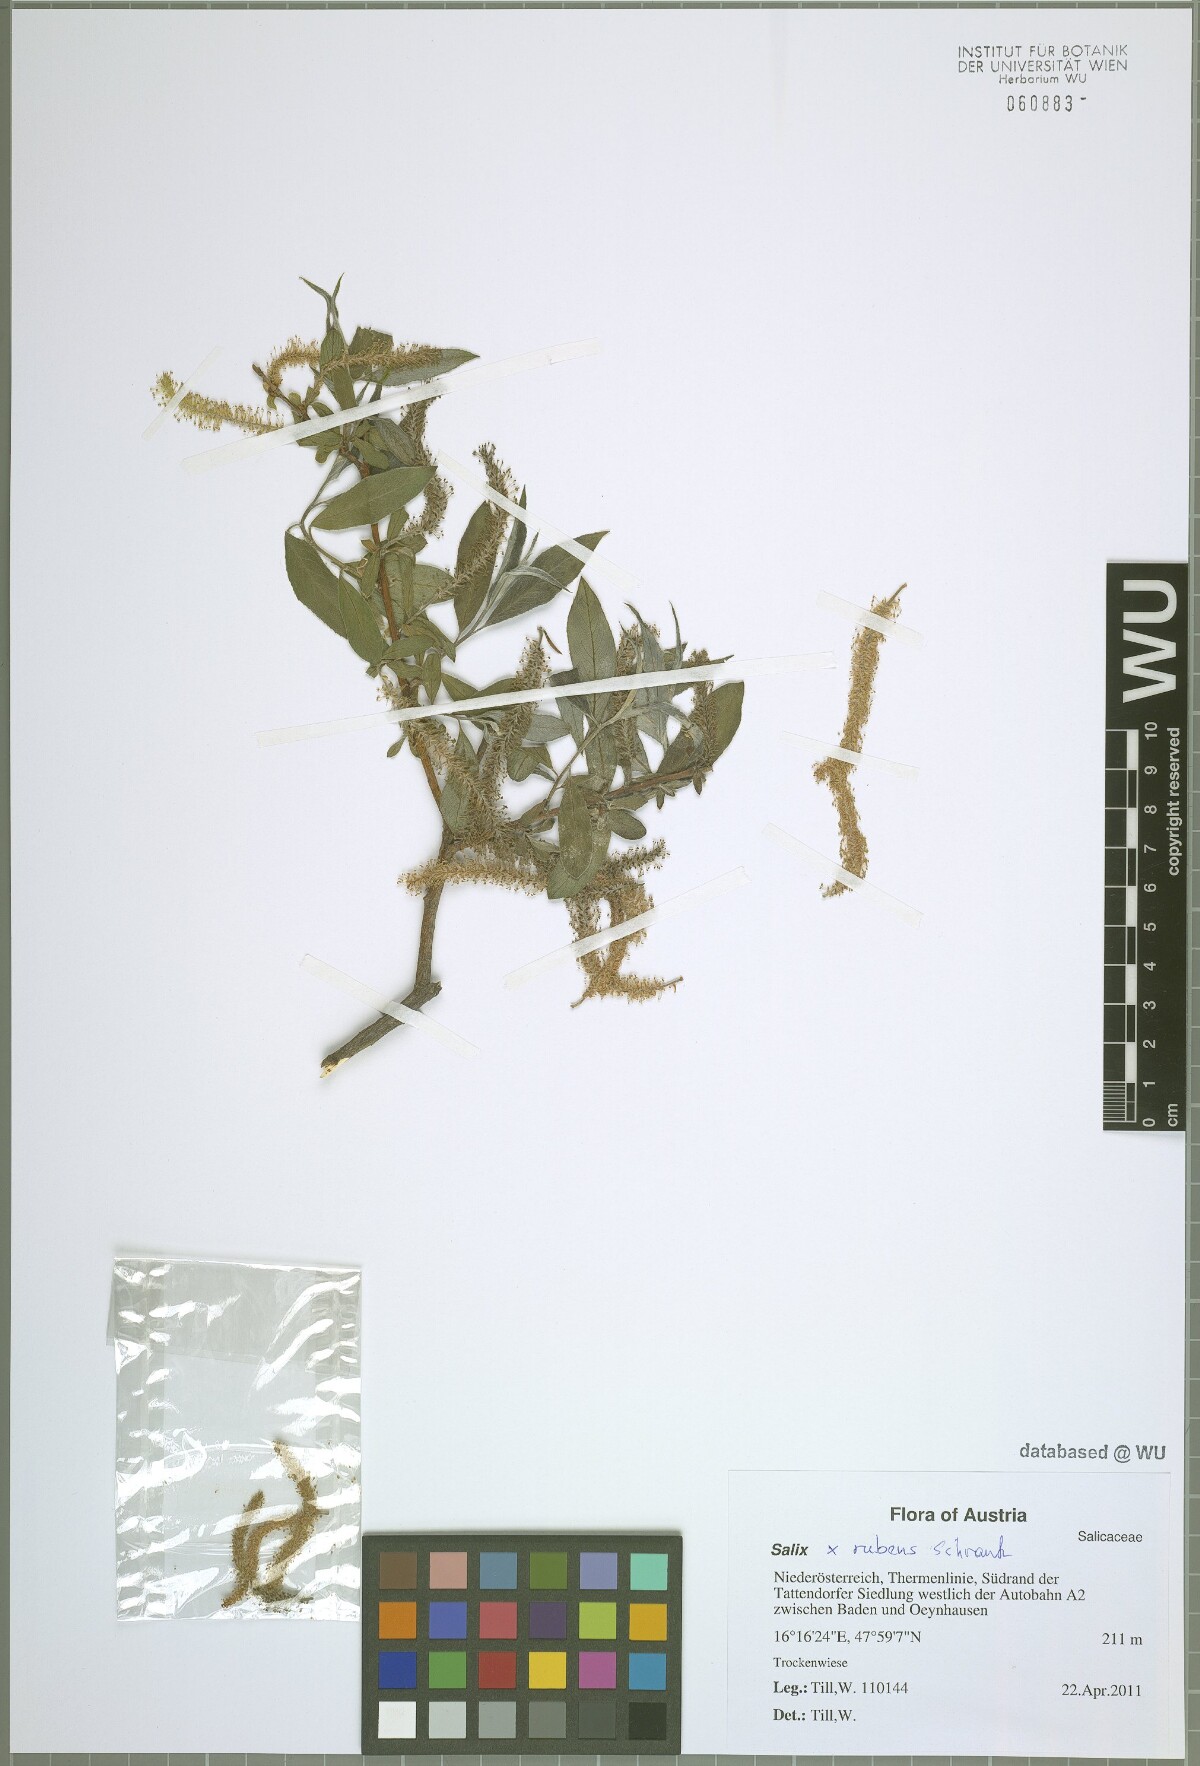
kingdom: Plantae
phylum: Tracheophyta
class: Magnoliopsida
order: Malpighiales
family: Salicaceae
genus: Salix
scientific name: Salix rubens
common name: Hybrid crack willow
